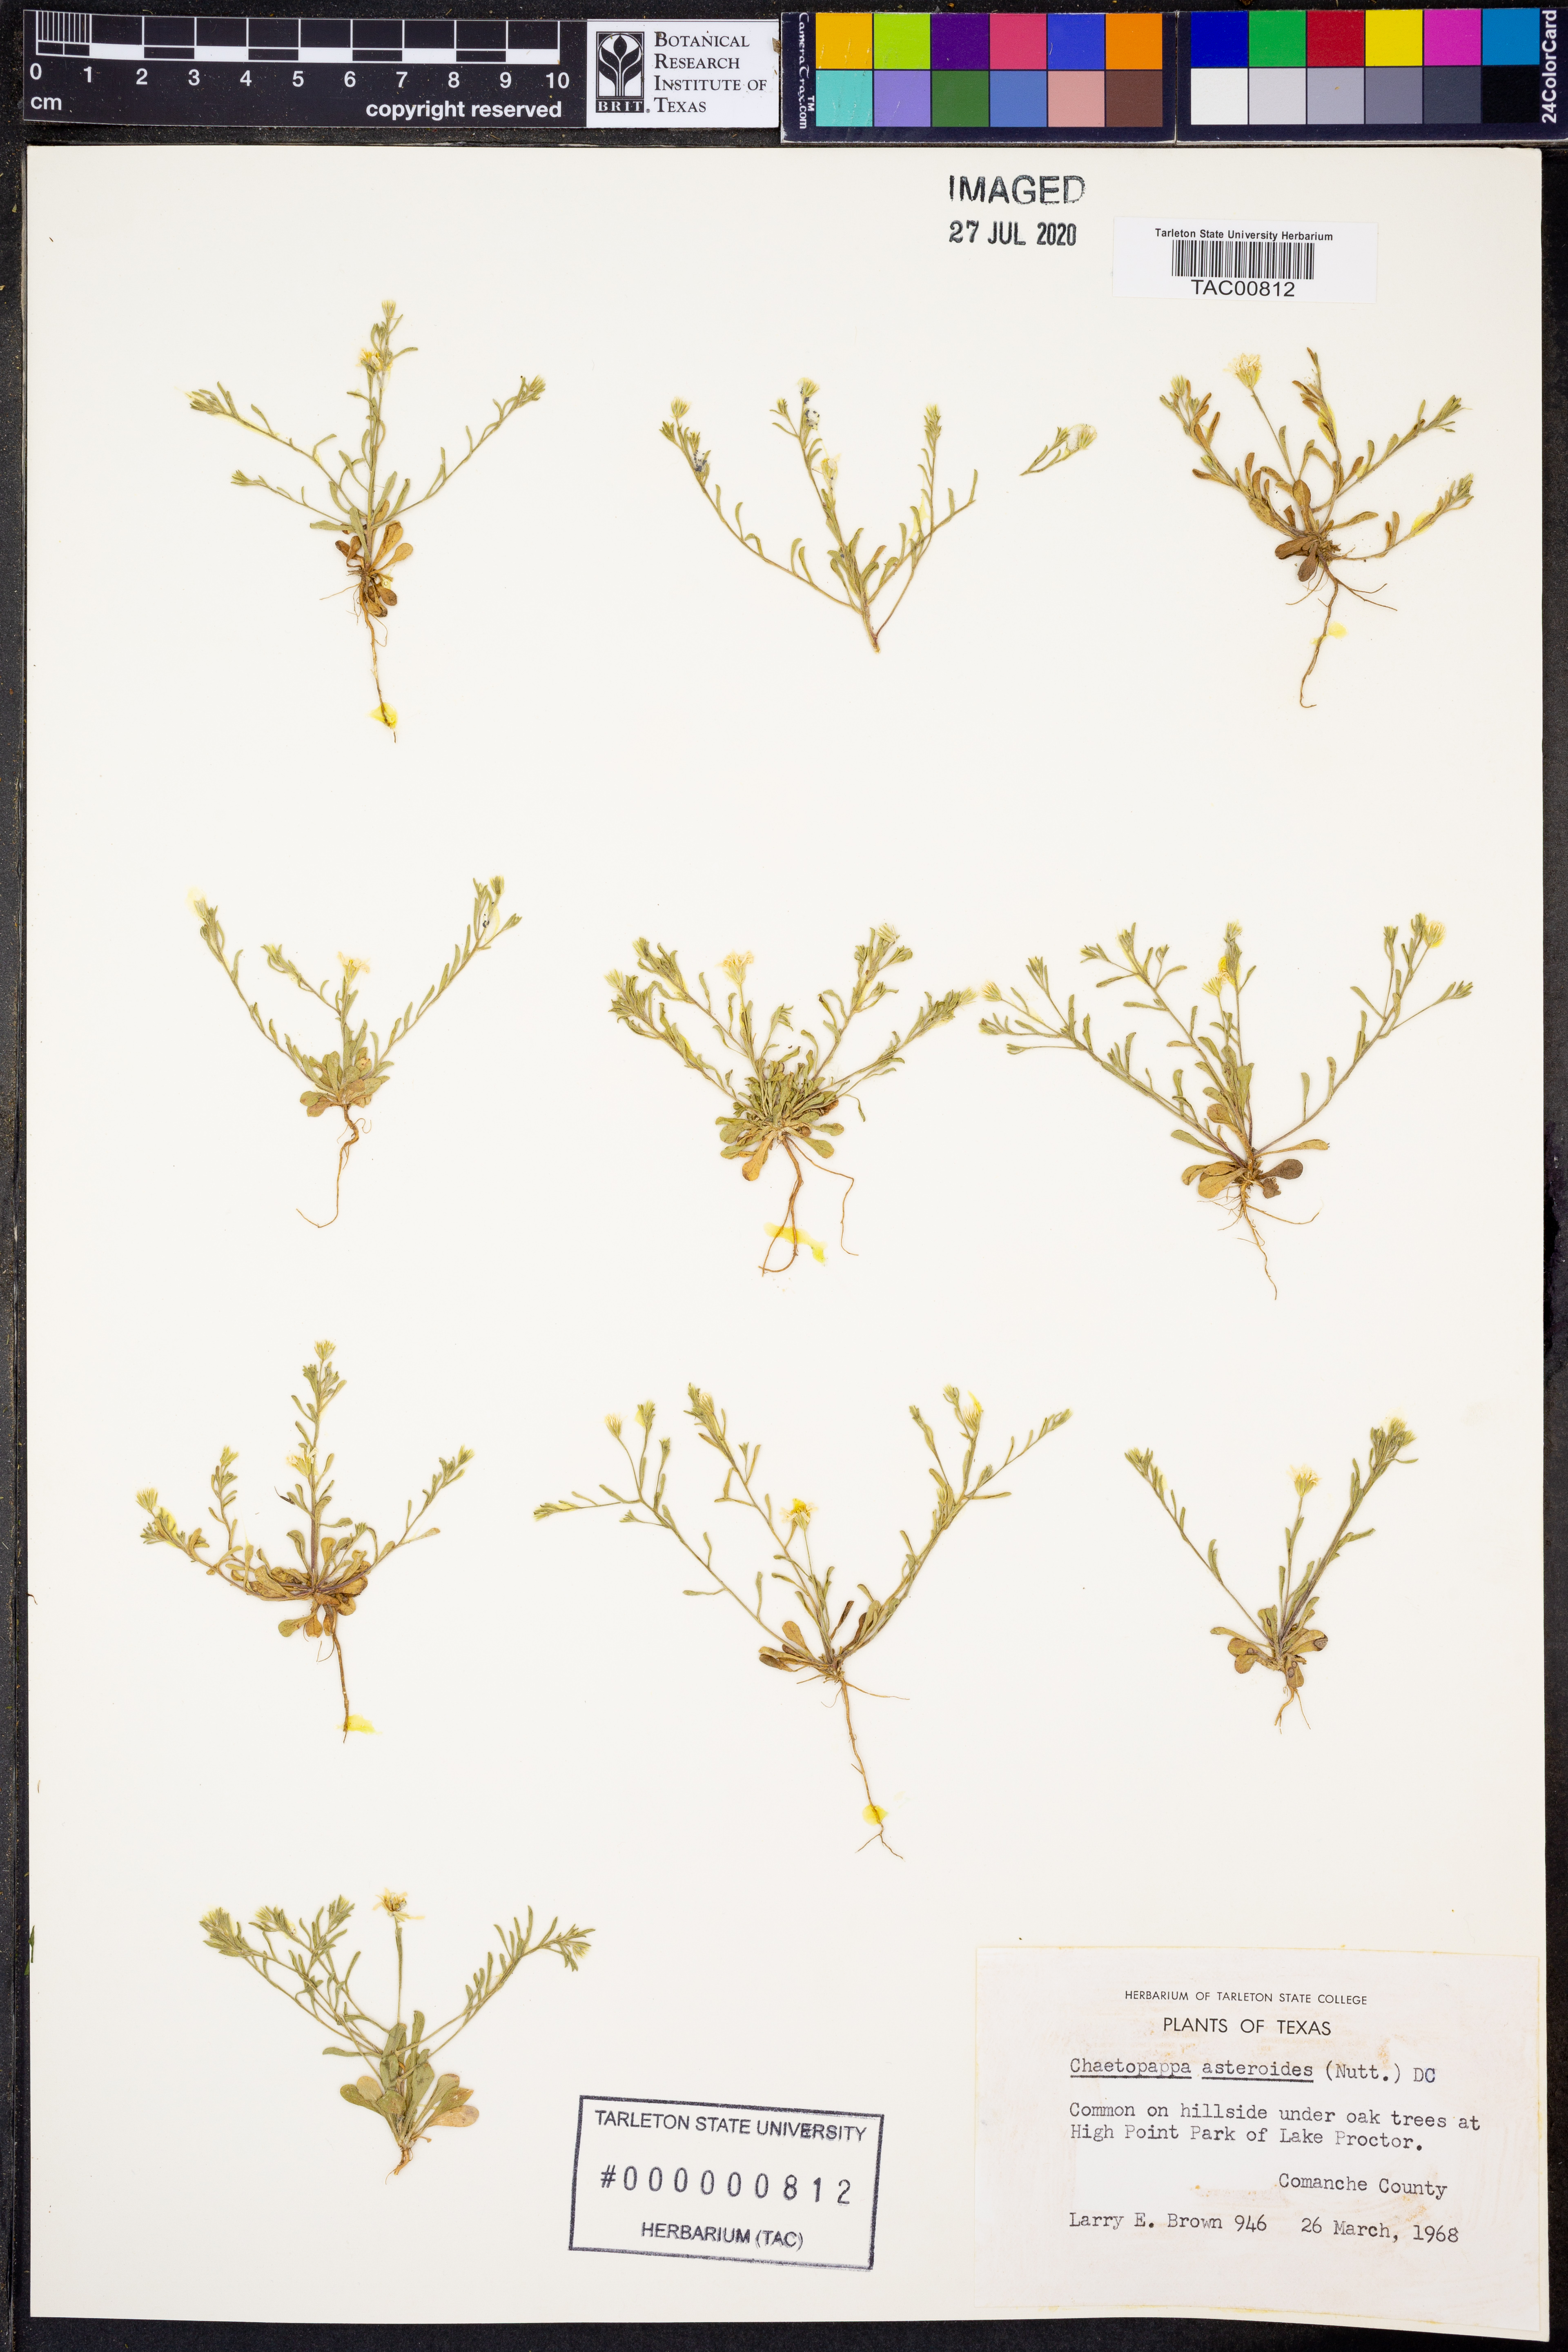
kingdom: Plantae
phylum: Tracheophyta
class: Magnoliopsida
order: Asterales
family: Asteraceae
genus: Chaetopappa
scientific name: Chaetopappa asteroides
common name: Tiny lazy daisy
